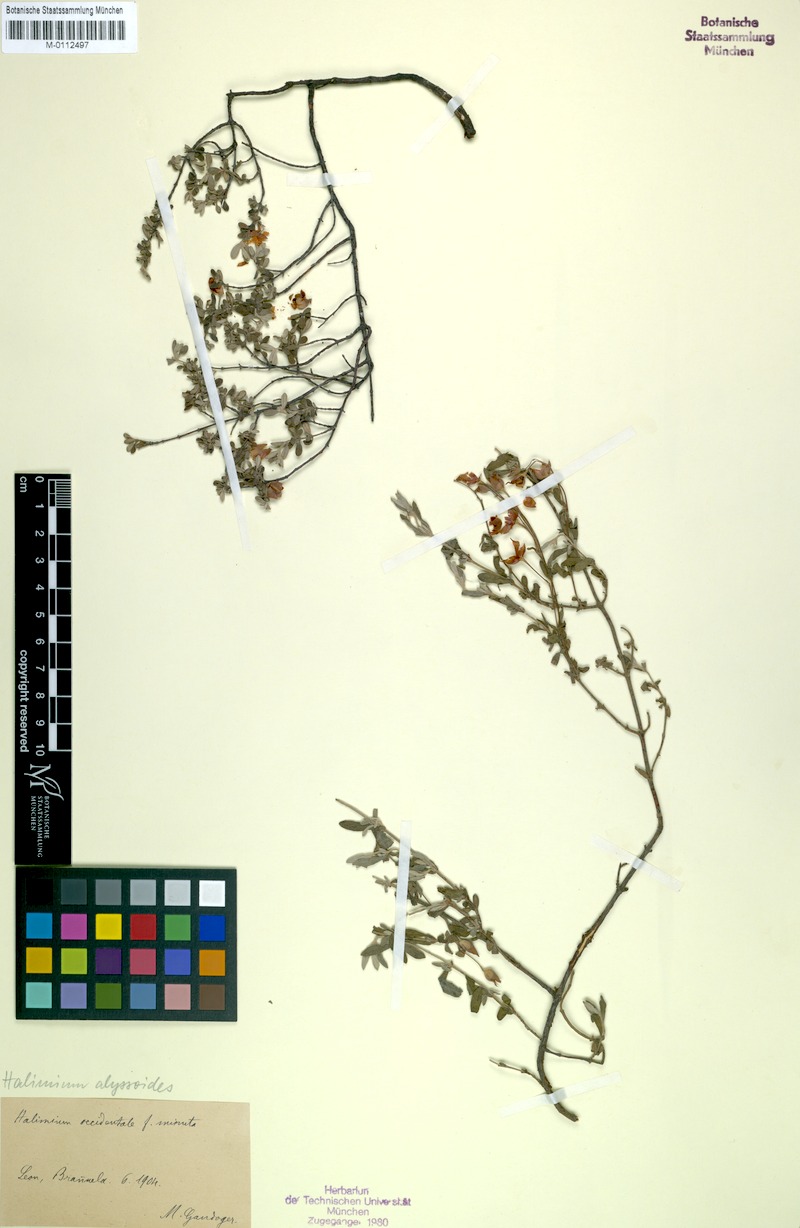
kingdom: Plantae
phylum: Tracheophyta
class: Magnoliopsida
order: Malvales
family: Cistaceae
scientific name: Cistaceae
